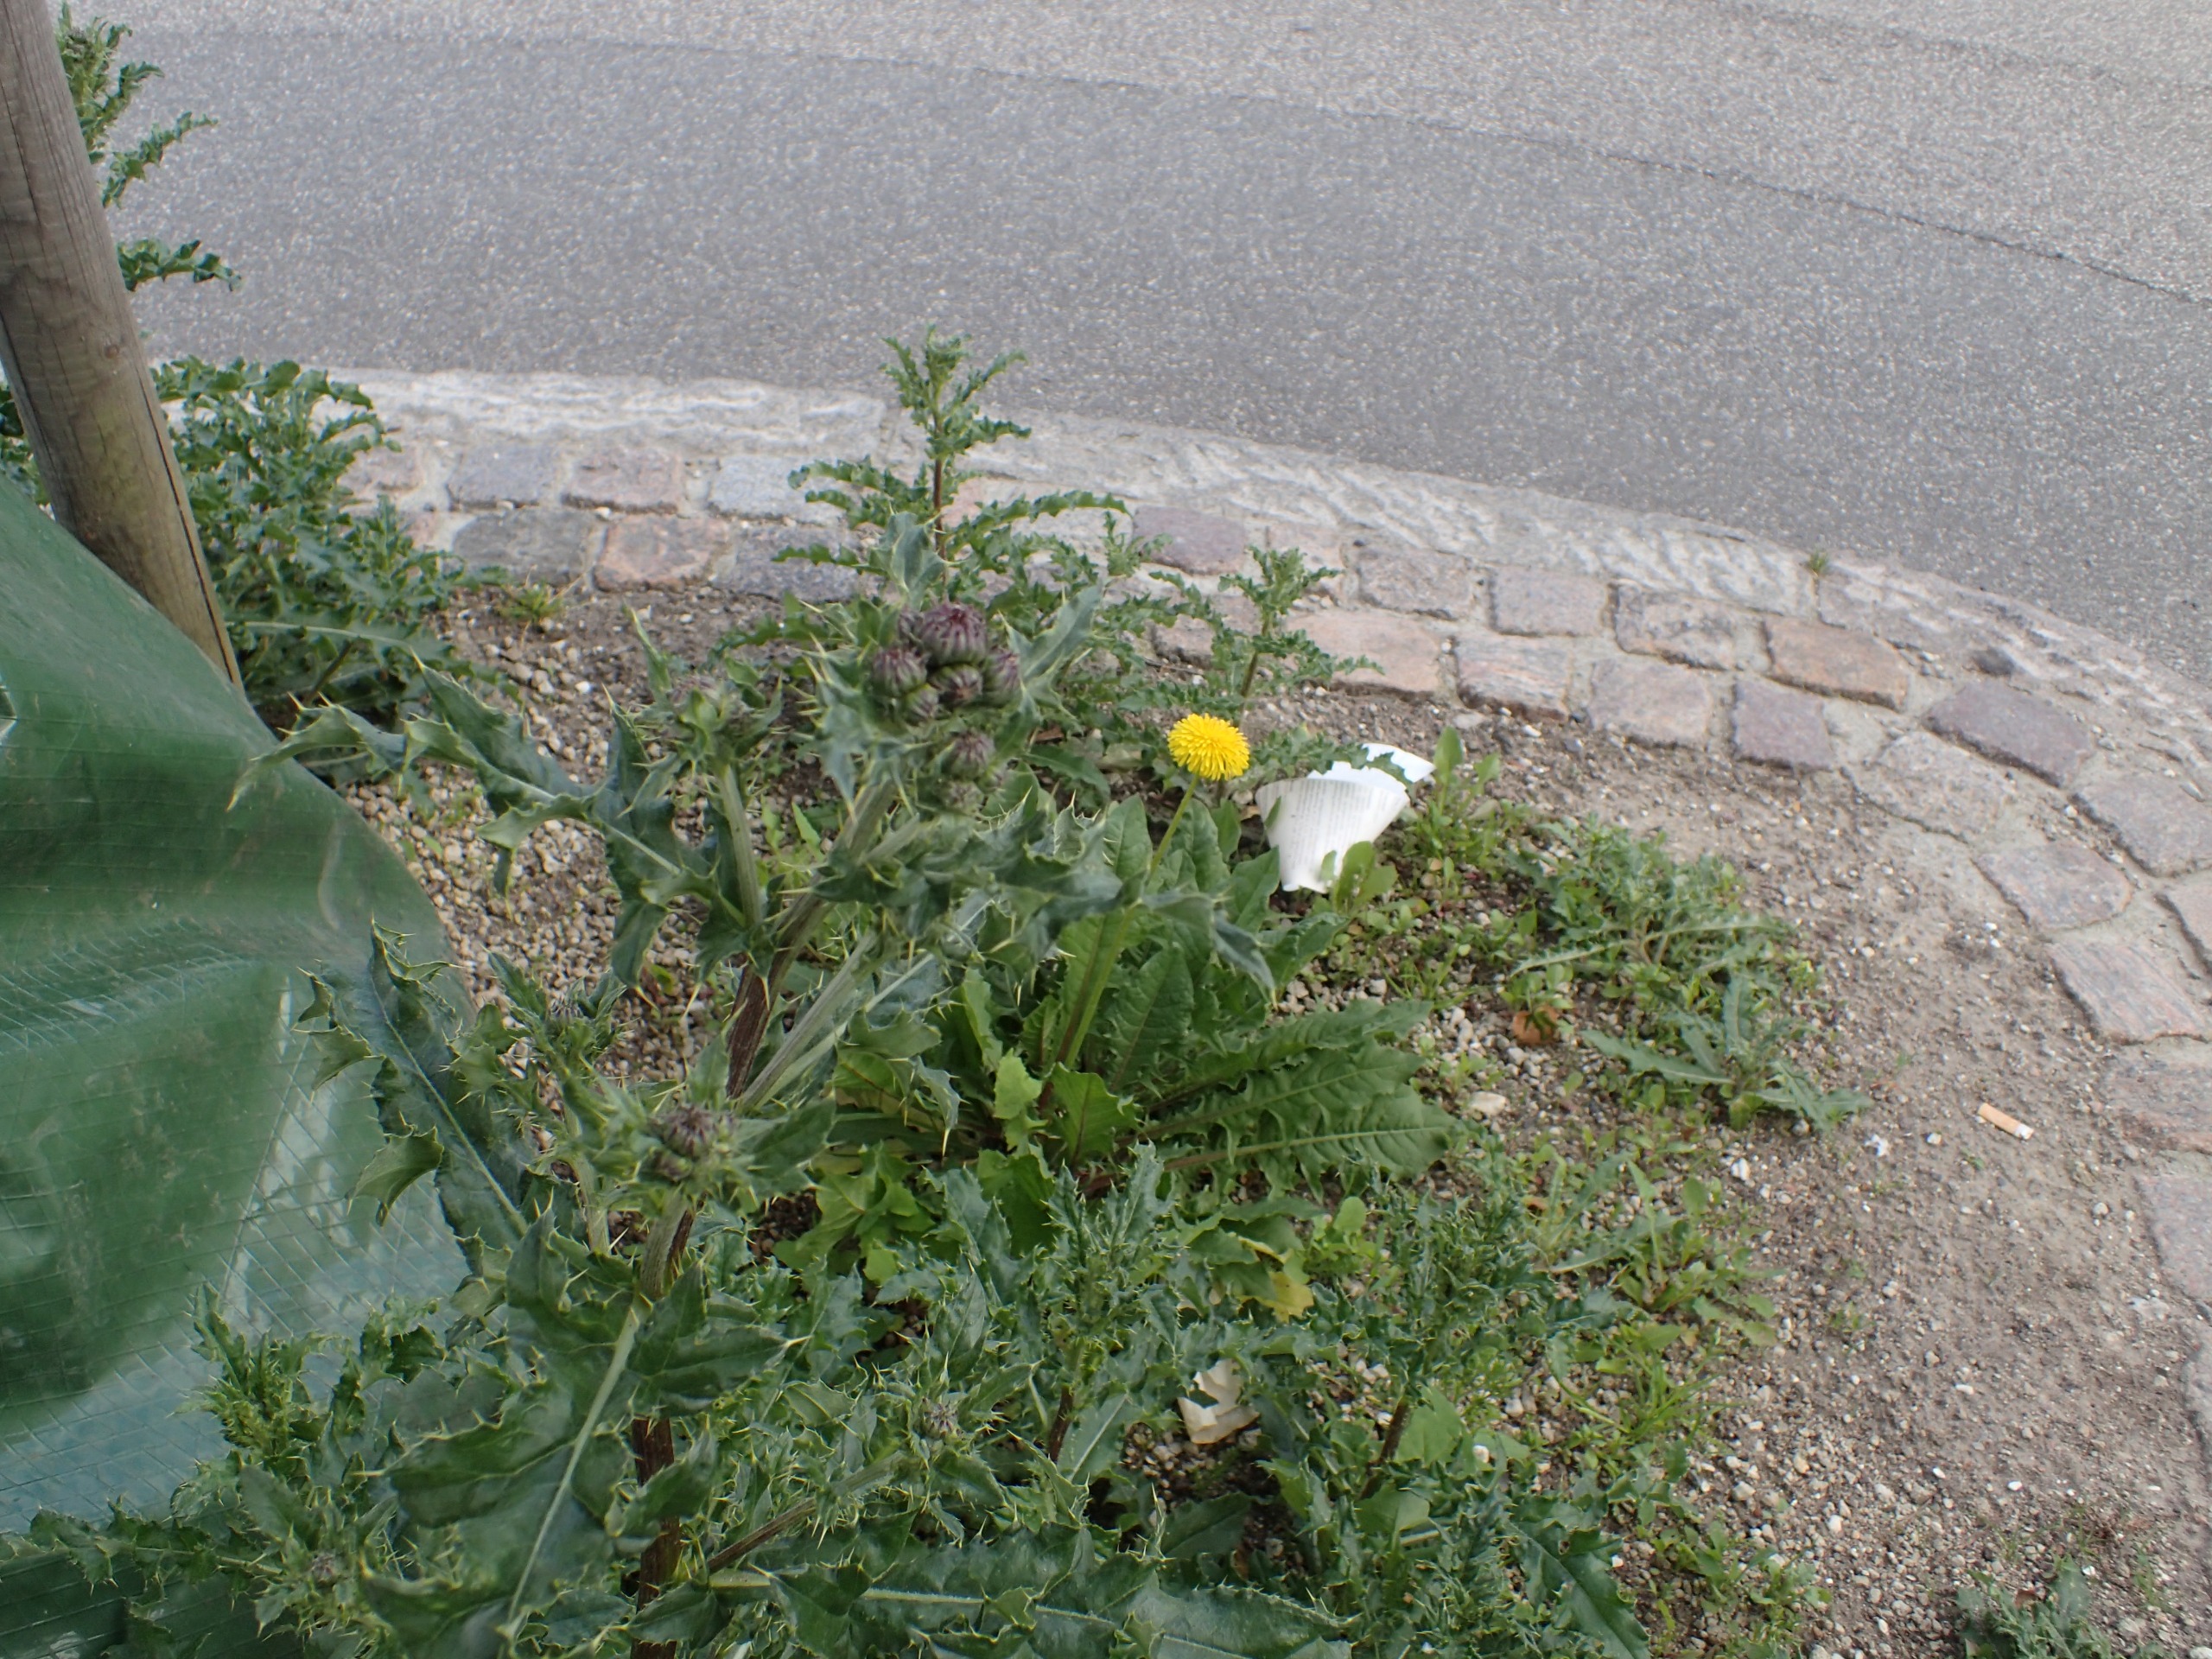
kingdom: Plantae
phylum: Tracheophyta
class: Magnoliopsida
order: Asterales
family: Asteraceae
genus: Cirsium
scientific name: Cirsium arvense
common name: Ager-tidsel
